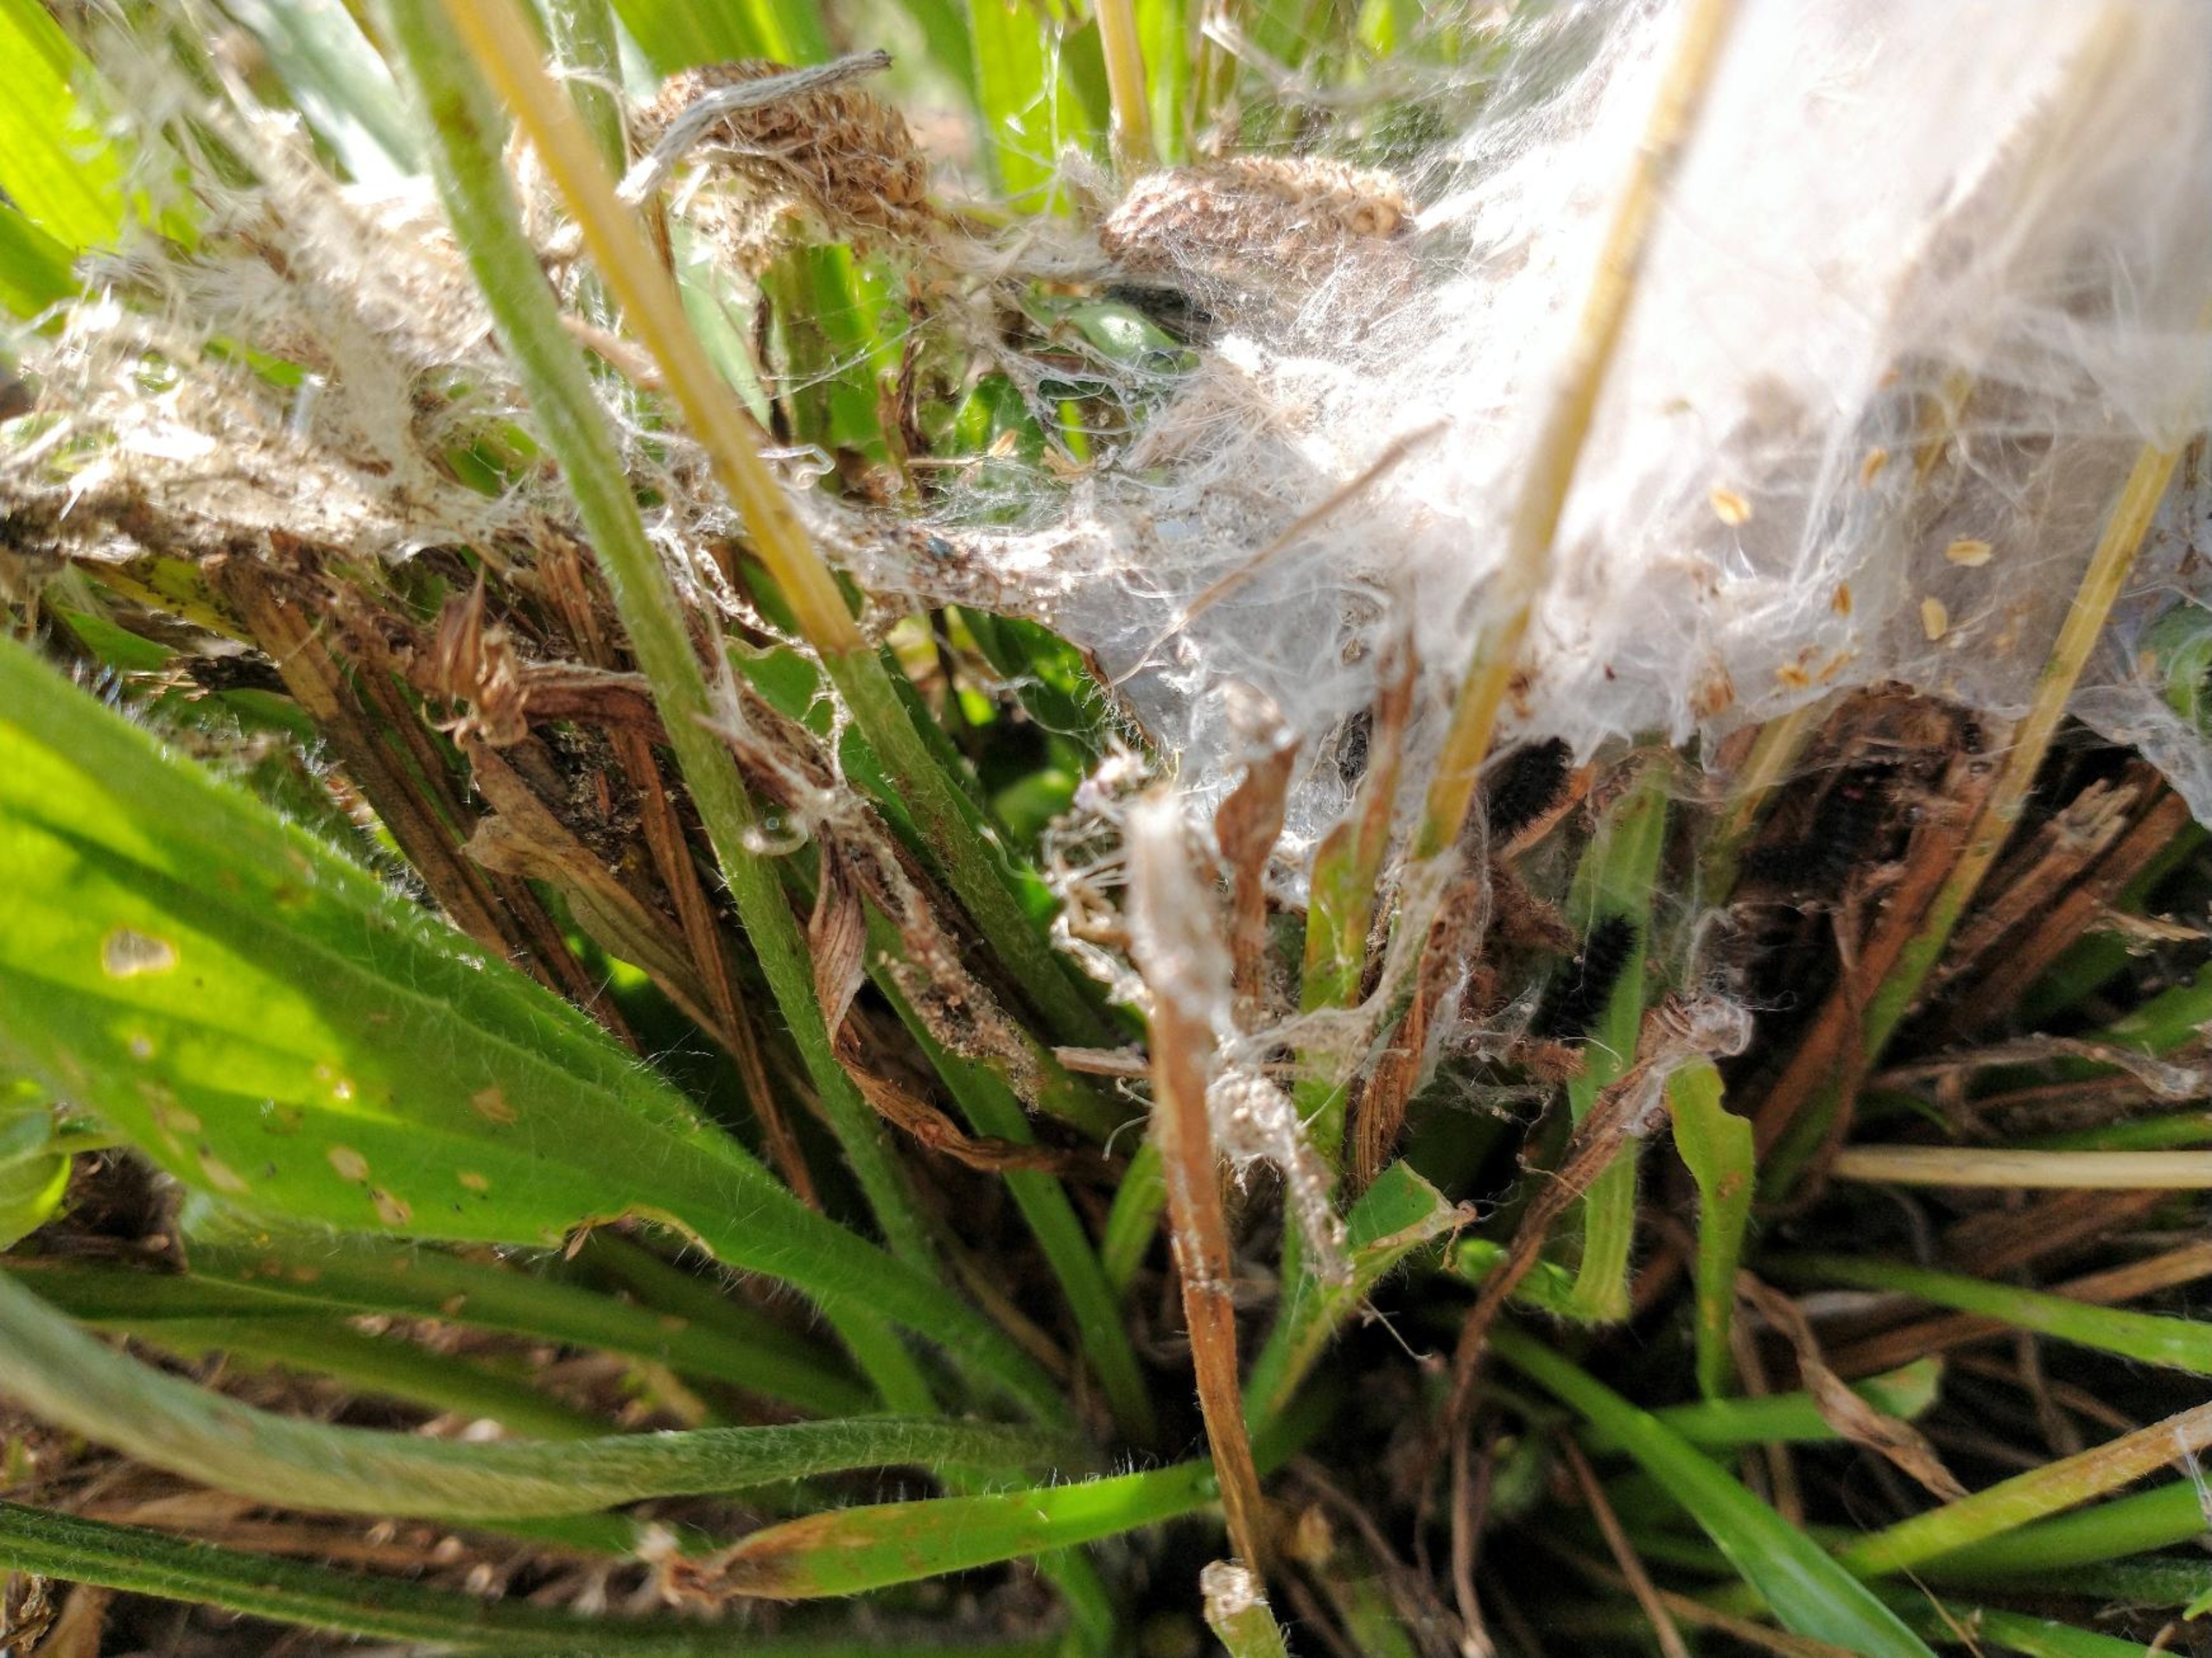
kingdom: Animalia
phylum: Arthropoda
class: Insecta
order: Lepidoptera
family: Nymphalidae
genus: Melitaea
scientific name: Melitaea cinxia
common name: Okkergul pletvinge
